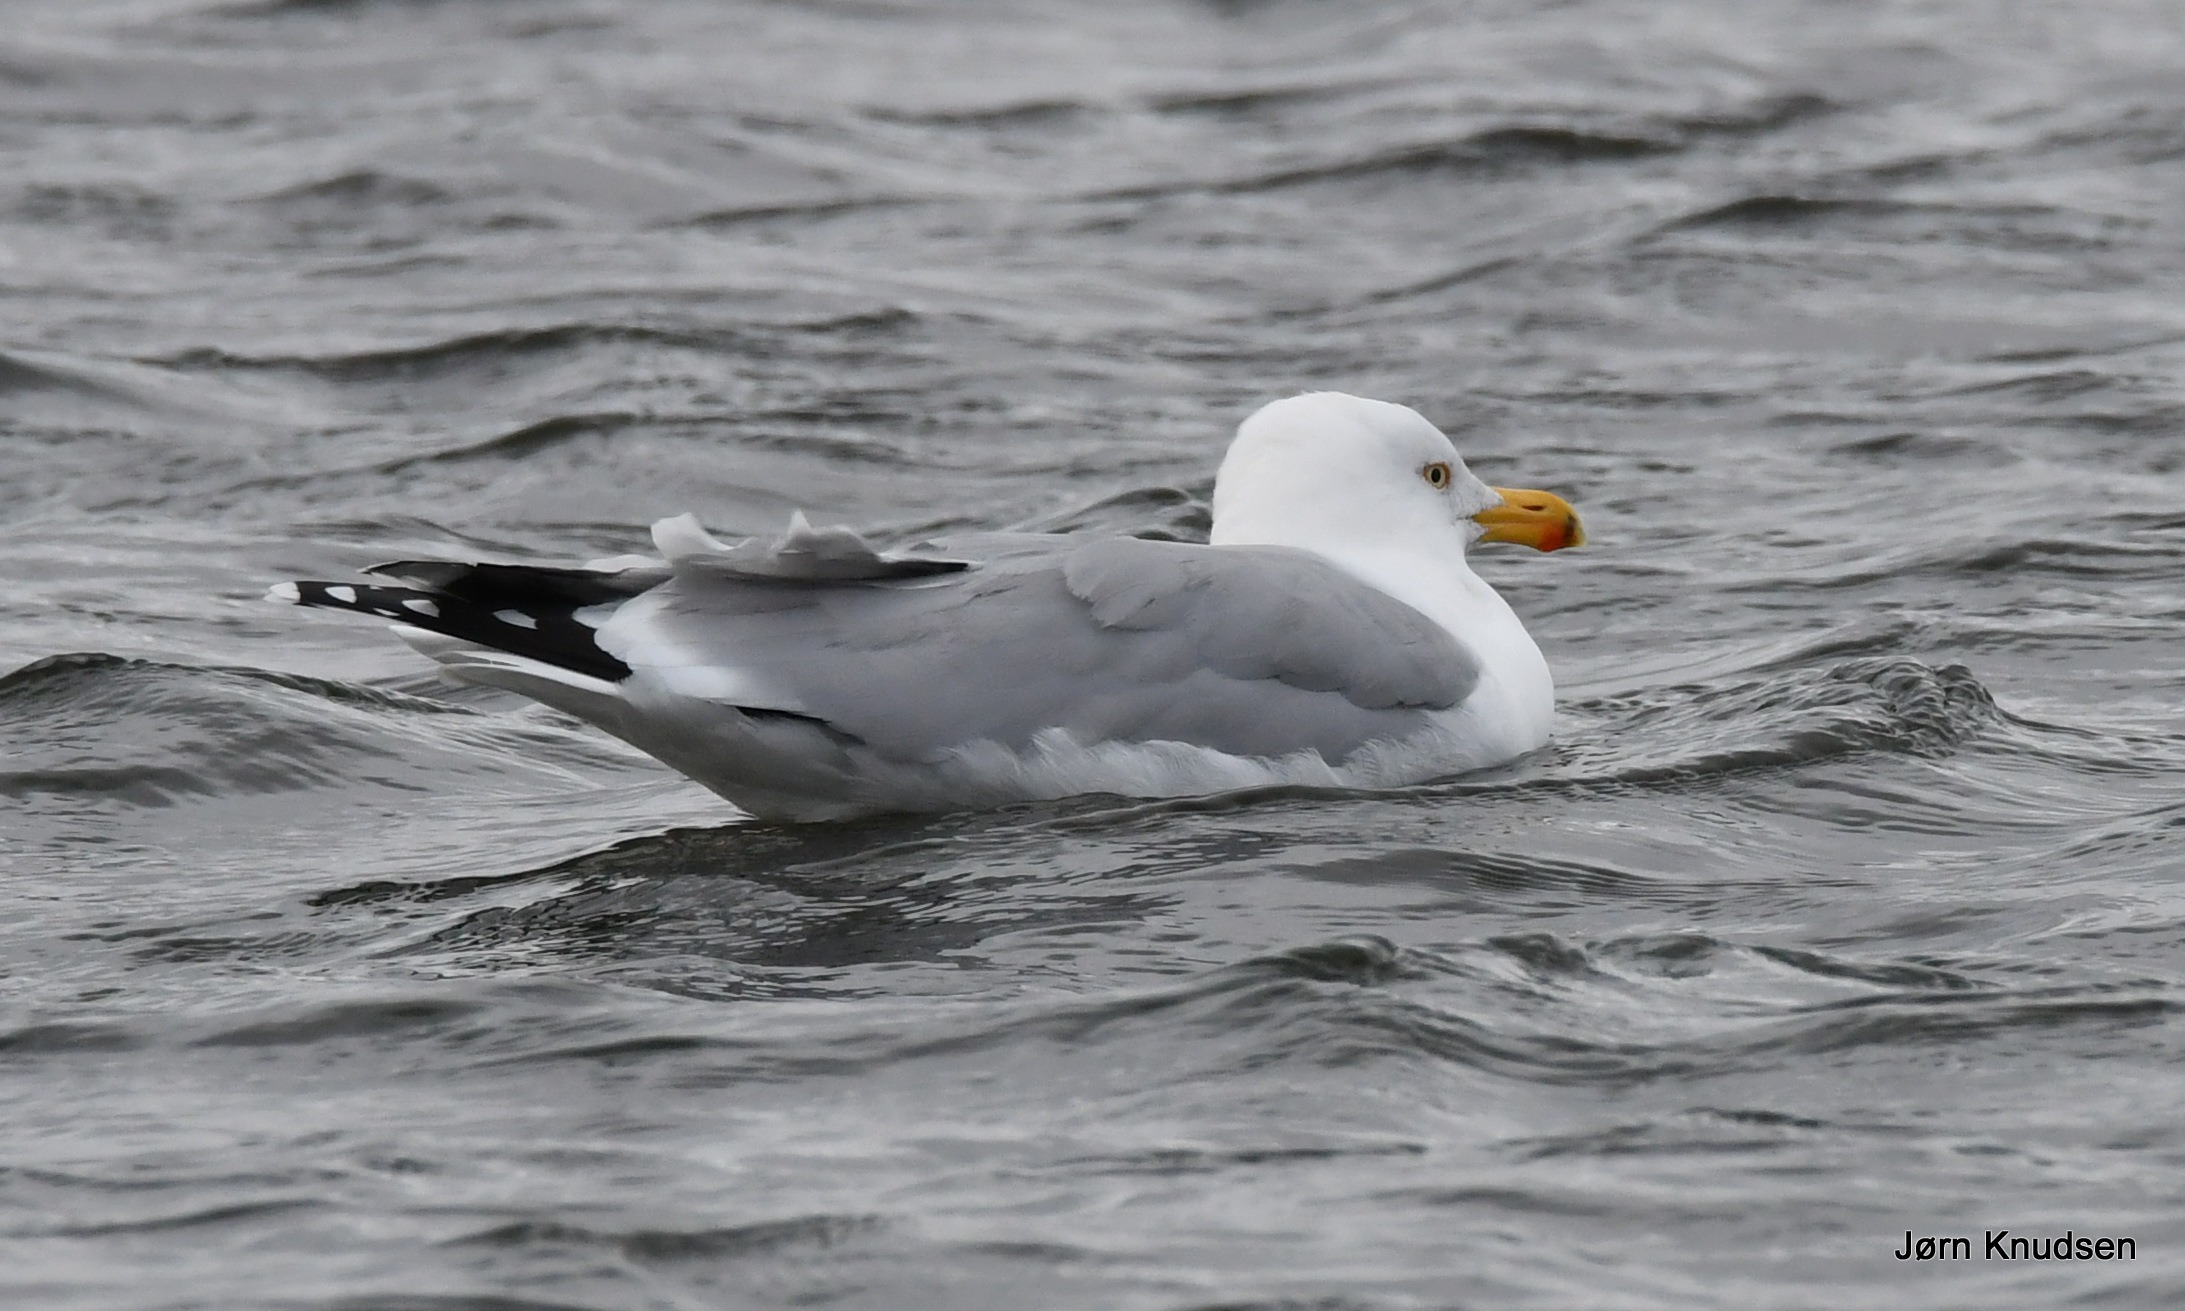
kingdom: Animalia
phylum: Chordata
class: Aves
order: Charadriiformes
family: Laridae
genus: Larus
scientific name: Larus argentatus
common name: Sølvmåge
